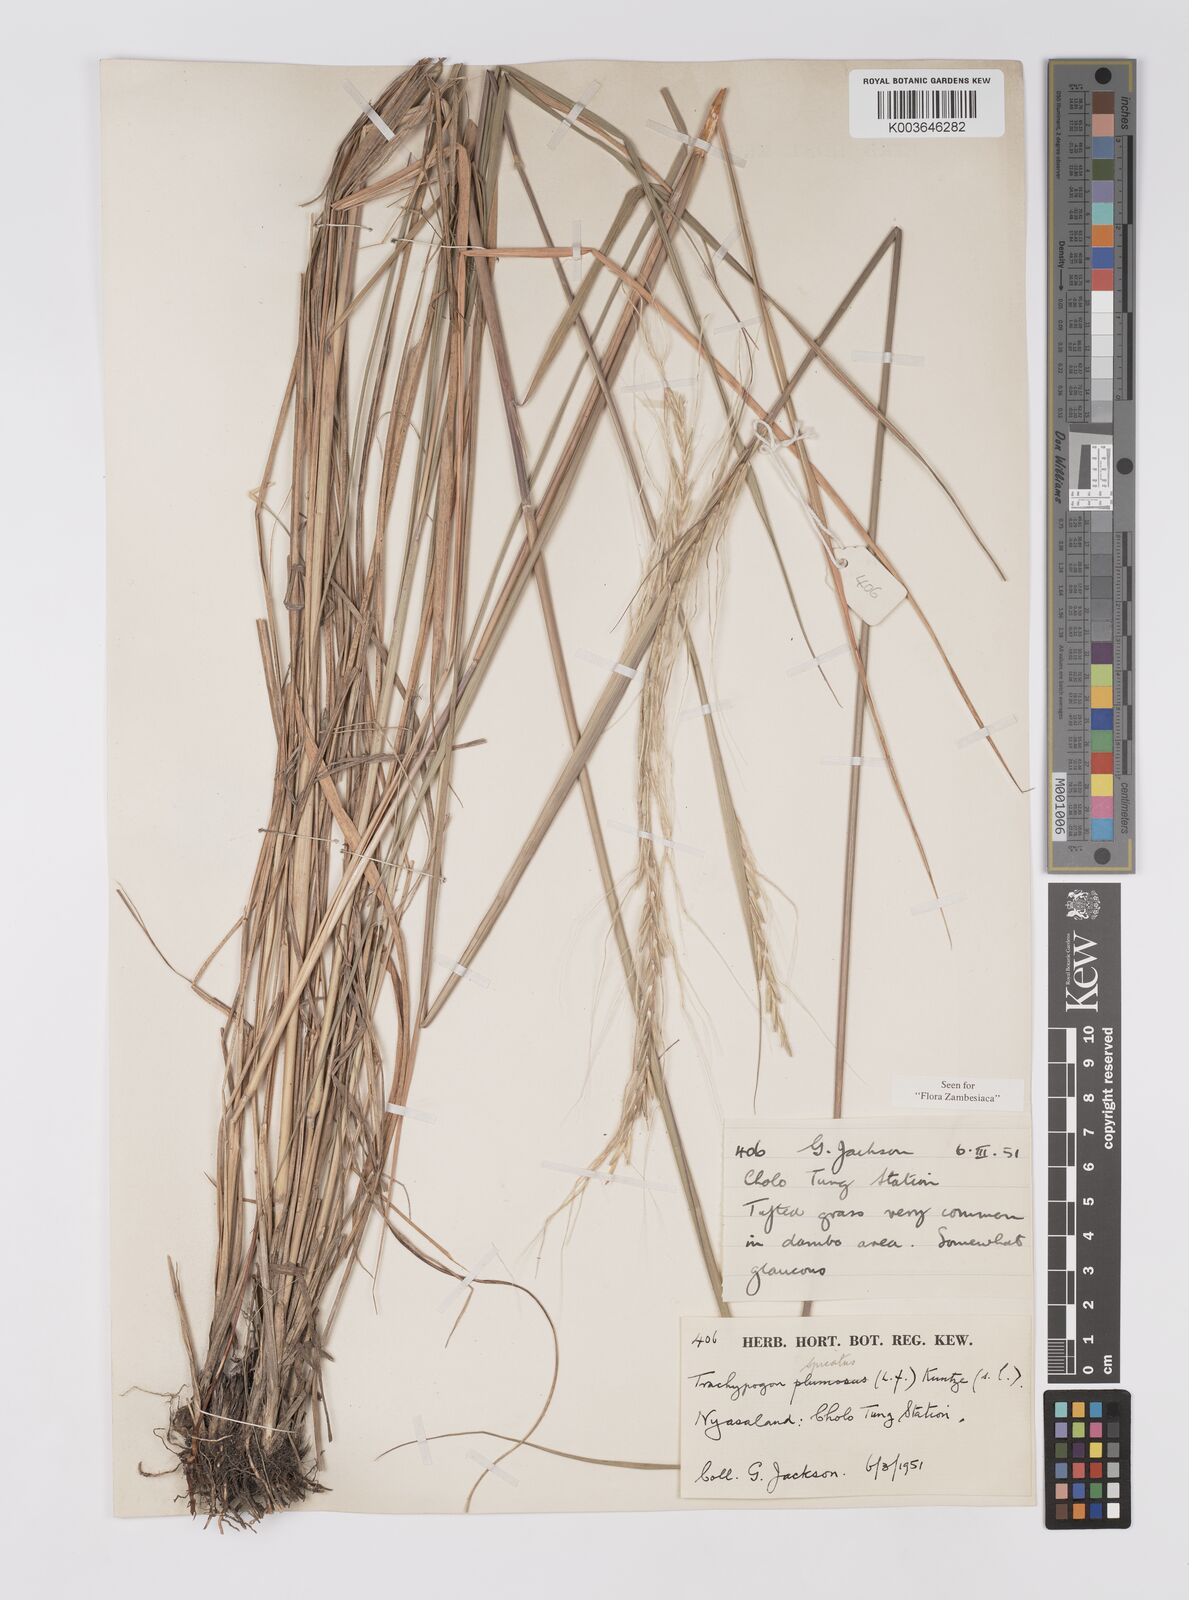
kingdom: Plantae
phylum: Tracheophyta
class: Liliopsida
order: Poales
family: Poaceae
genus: Trachypogon
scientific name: Trachypogon spicatus
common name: Crinkle-awn
